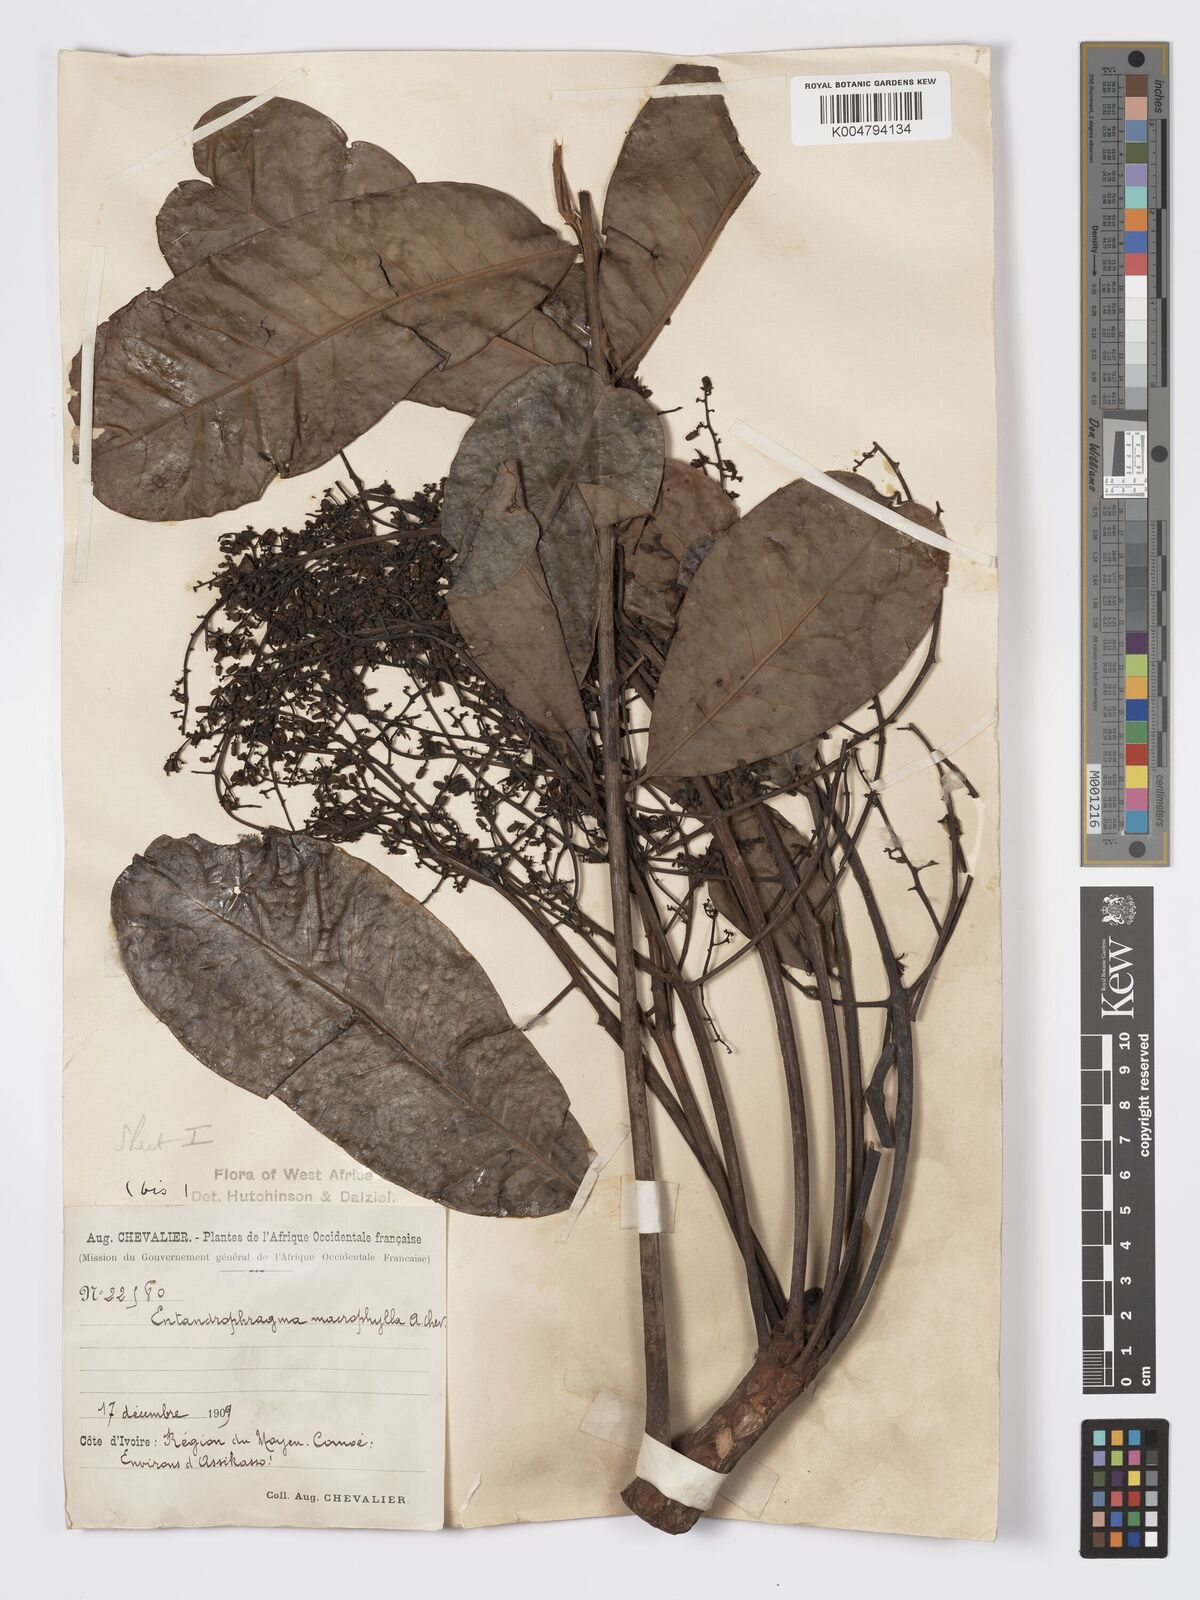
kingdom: Plantae
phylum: Tracheophyta
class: Magnoliopsida
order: Sapindales
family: Meliaceae
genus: Entandrophragma
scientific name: Entandrophragma angolense
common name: African mahogany
